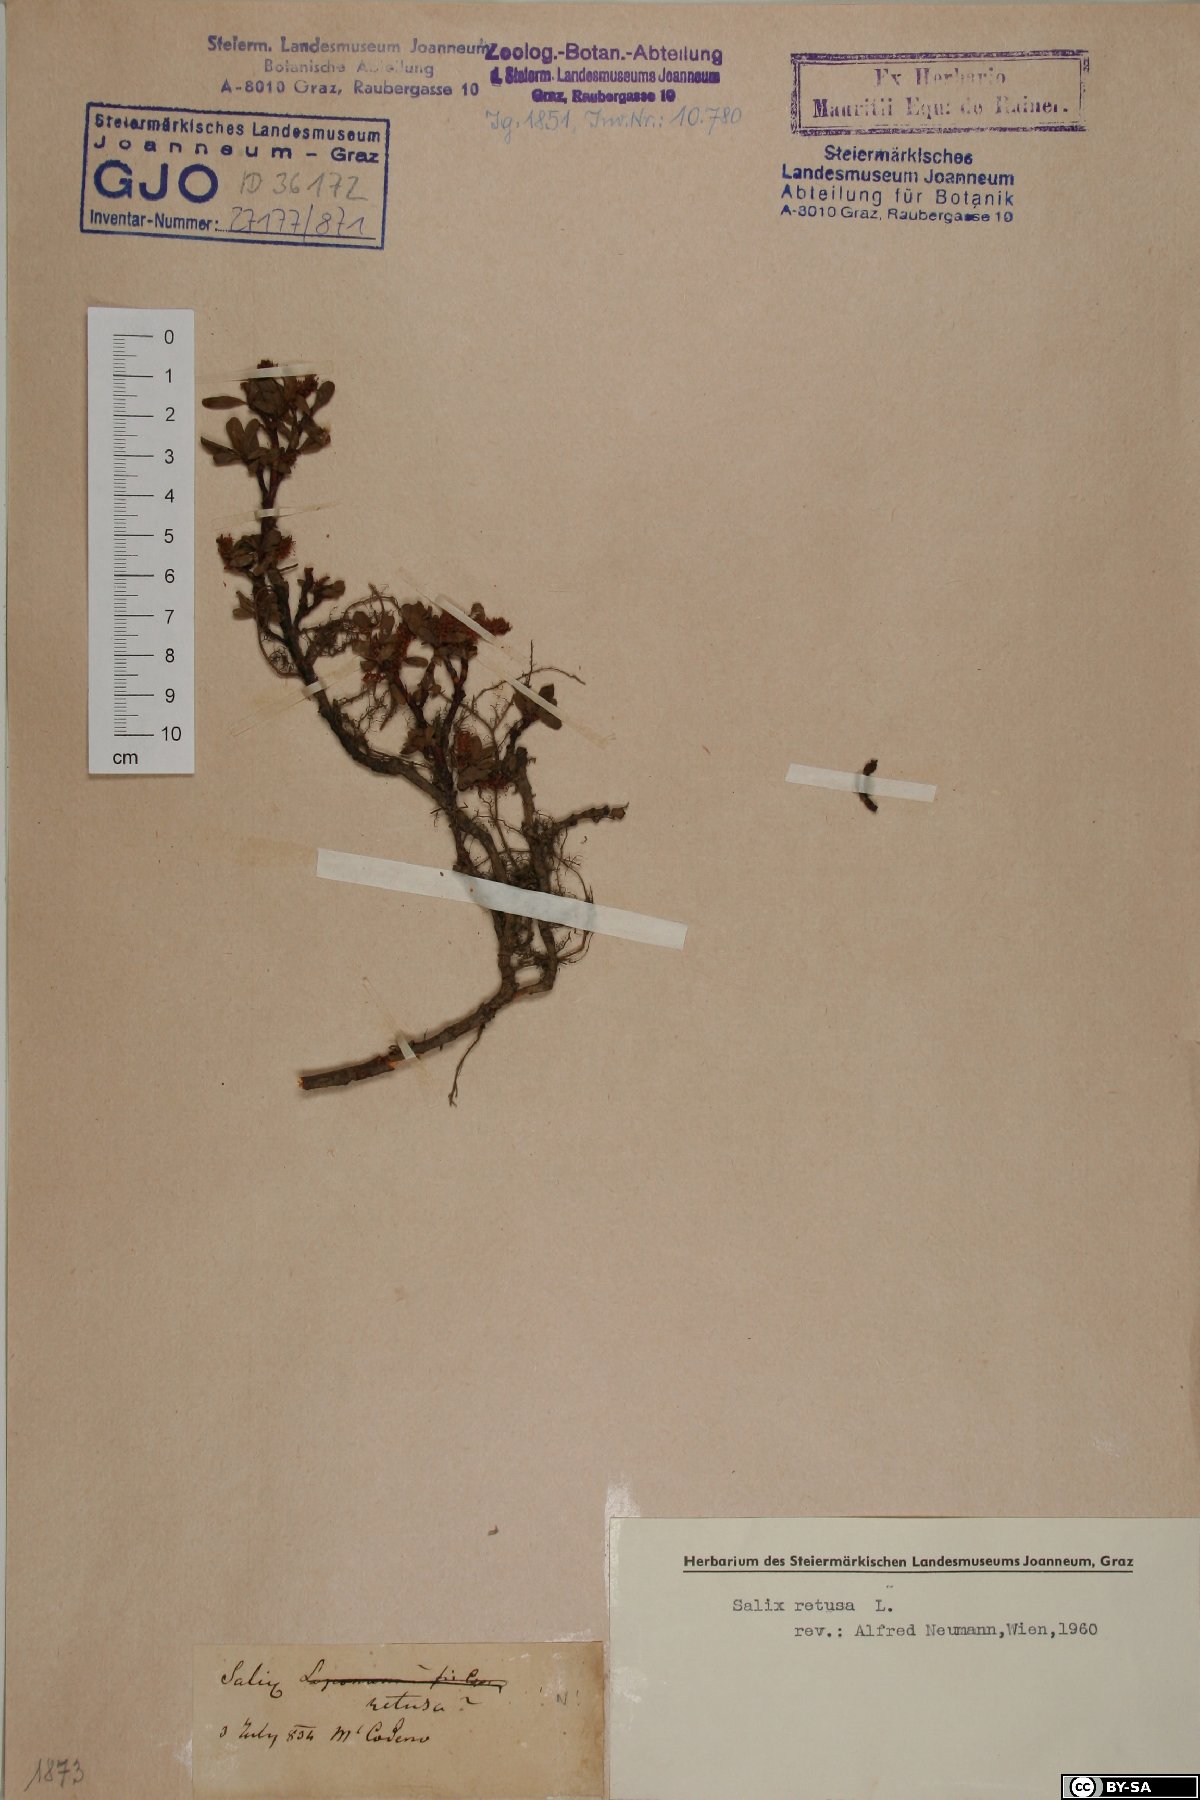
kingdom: Plantae
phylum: Tracheophyta
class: Magnoliopsida
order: Malpighiales
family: Salicaceae
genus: Salix
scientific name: Salix retusa
